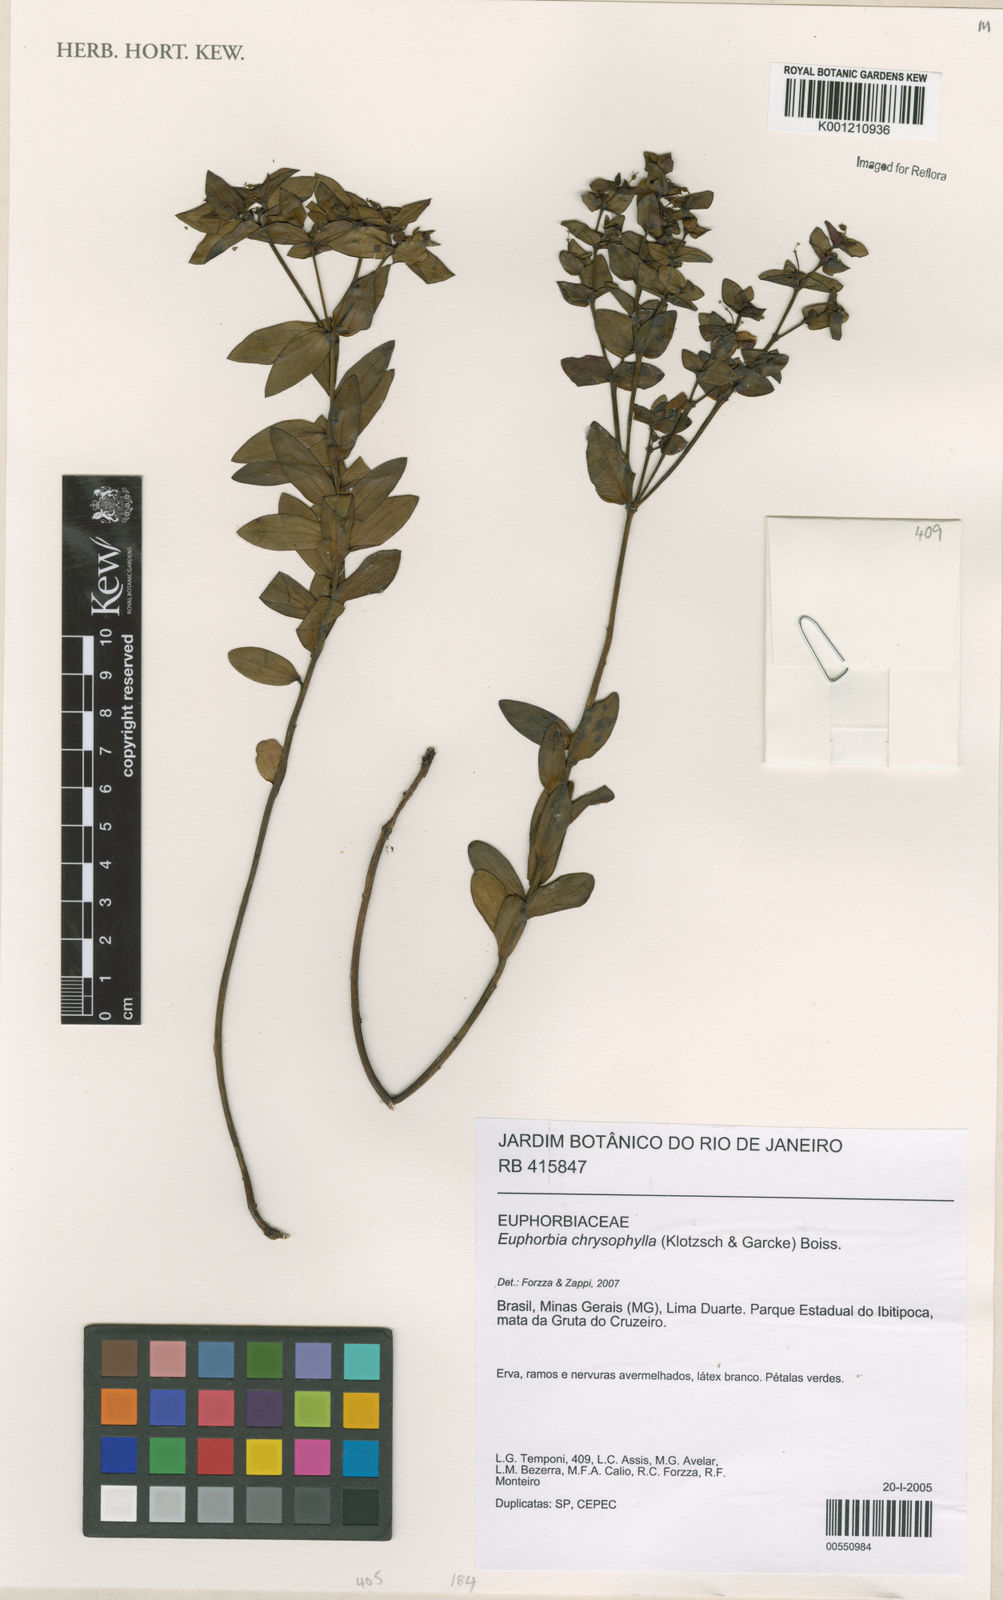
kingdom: Plantae
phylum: Tracheophyta
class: Magnoliopsida
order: Malpighiales
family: Euphorbiaceae
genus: Euphorbia
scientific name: Euphorbia chrysophylla
